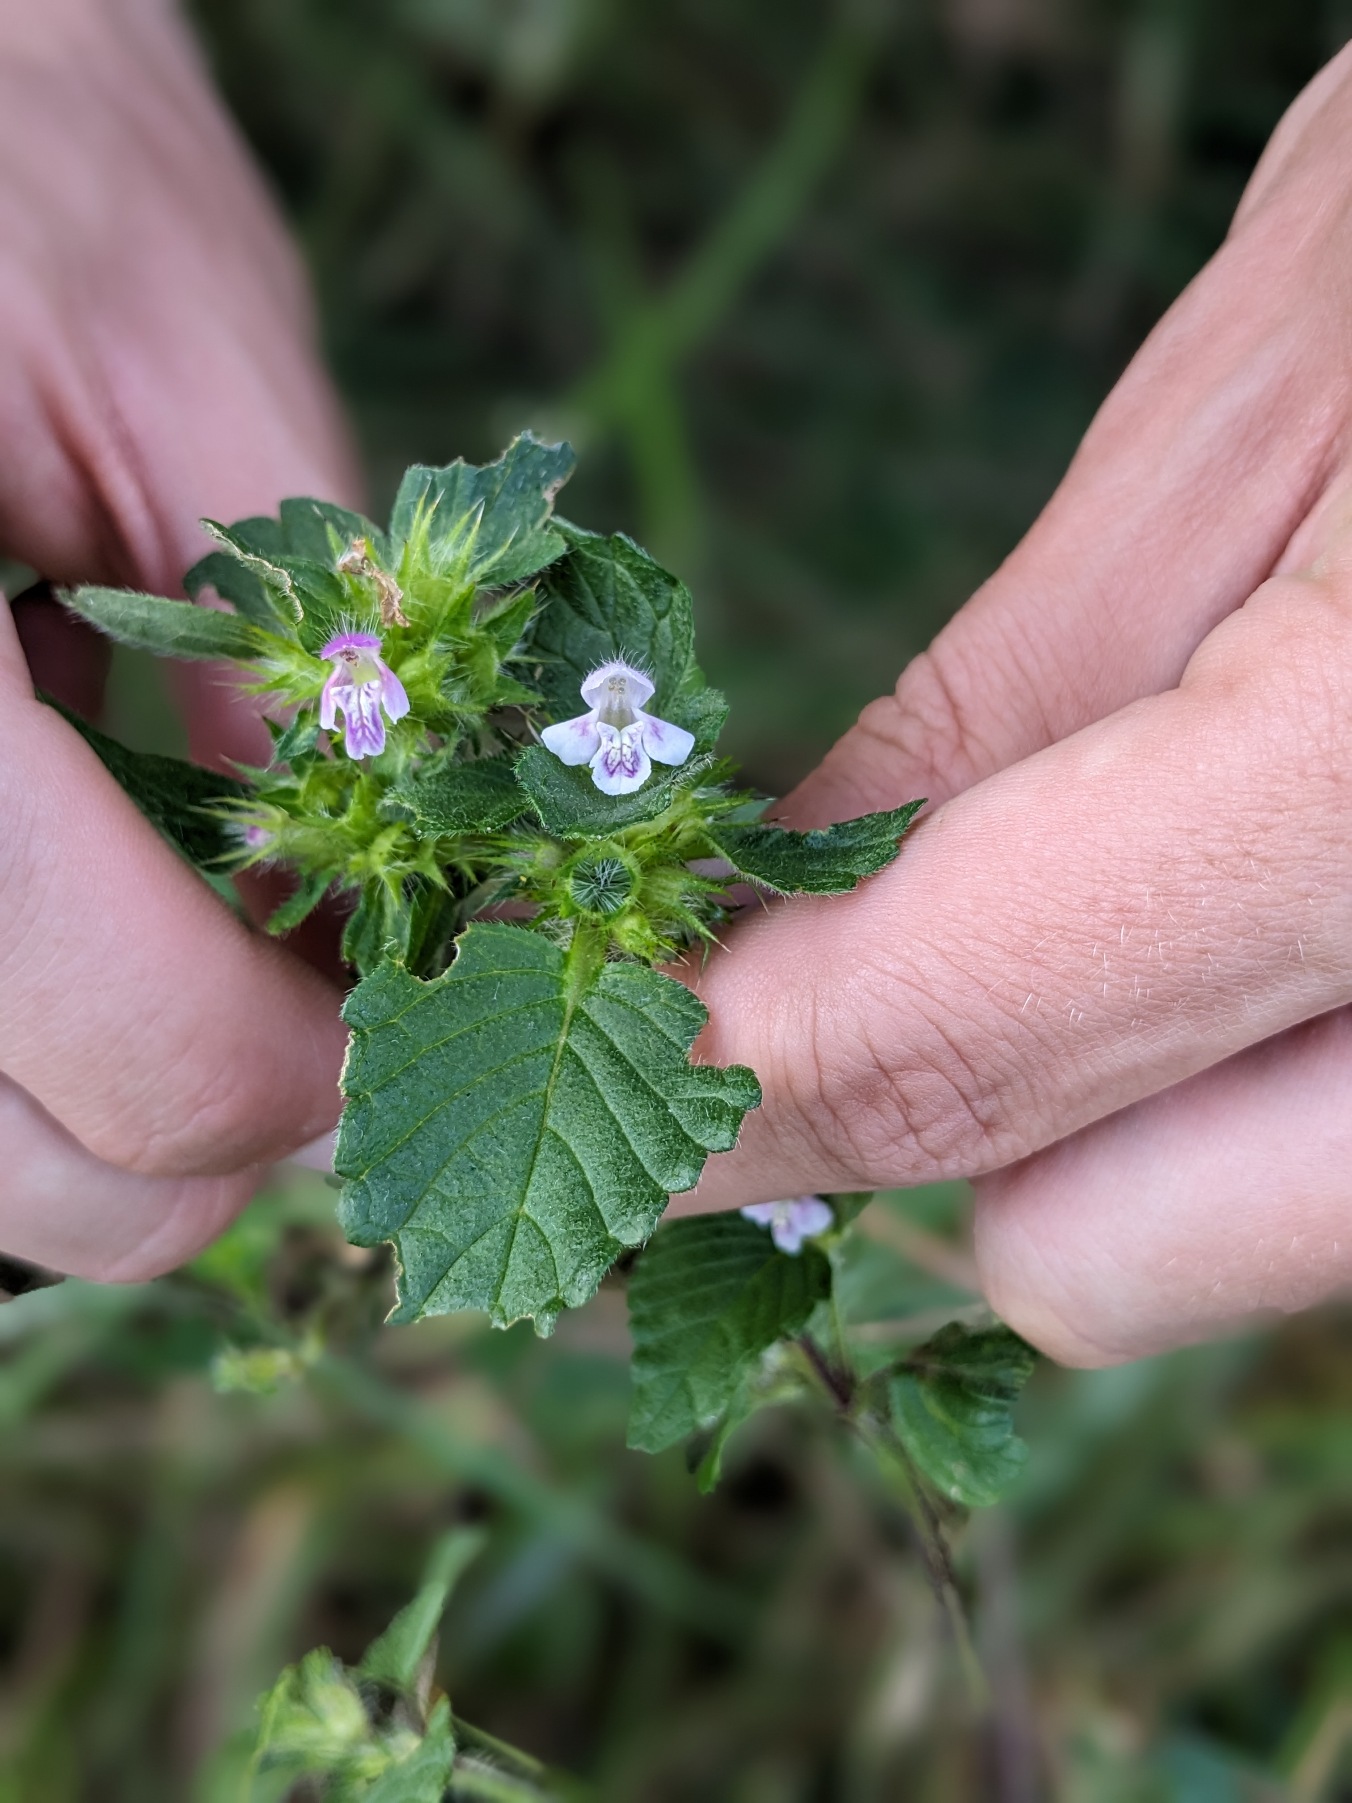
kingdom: Plantae
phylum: Tracheophyta
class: Magnoliopsida
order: Lamiales
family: Lamiaceae
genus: Galeopsis
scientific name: Galeopsis bifida
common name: Skov-hanekro
